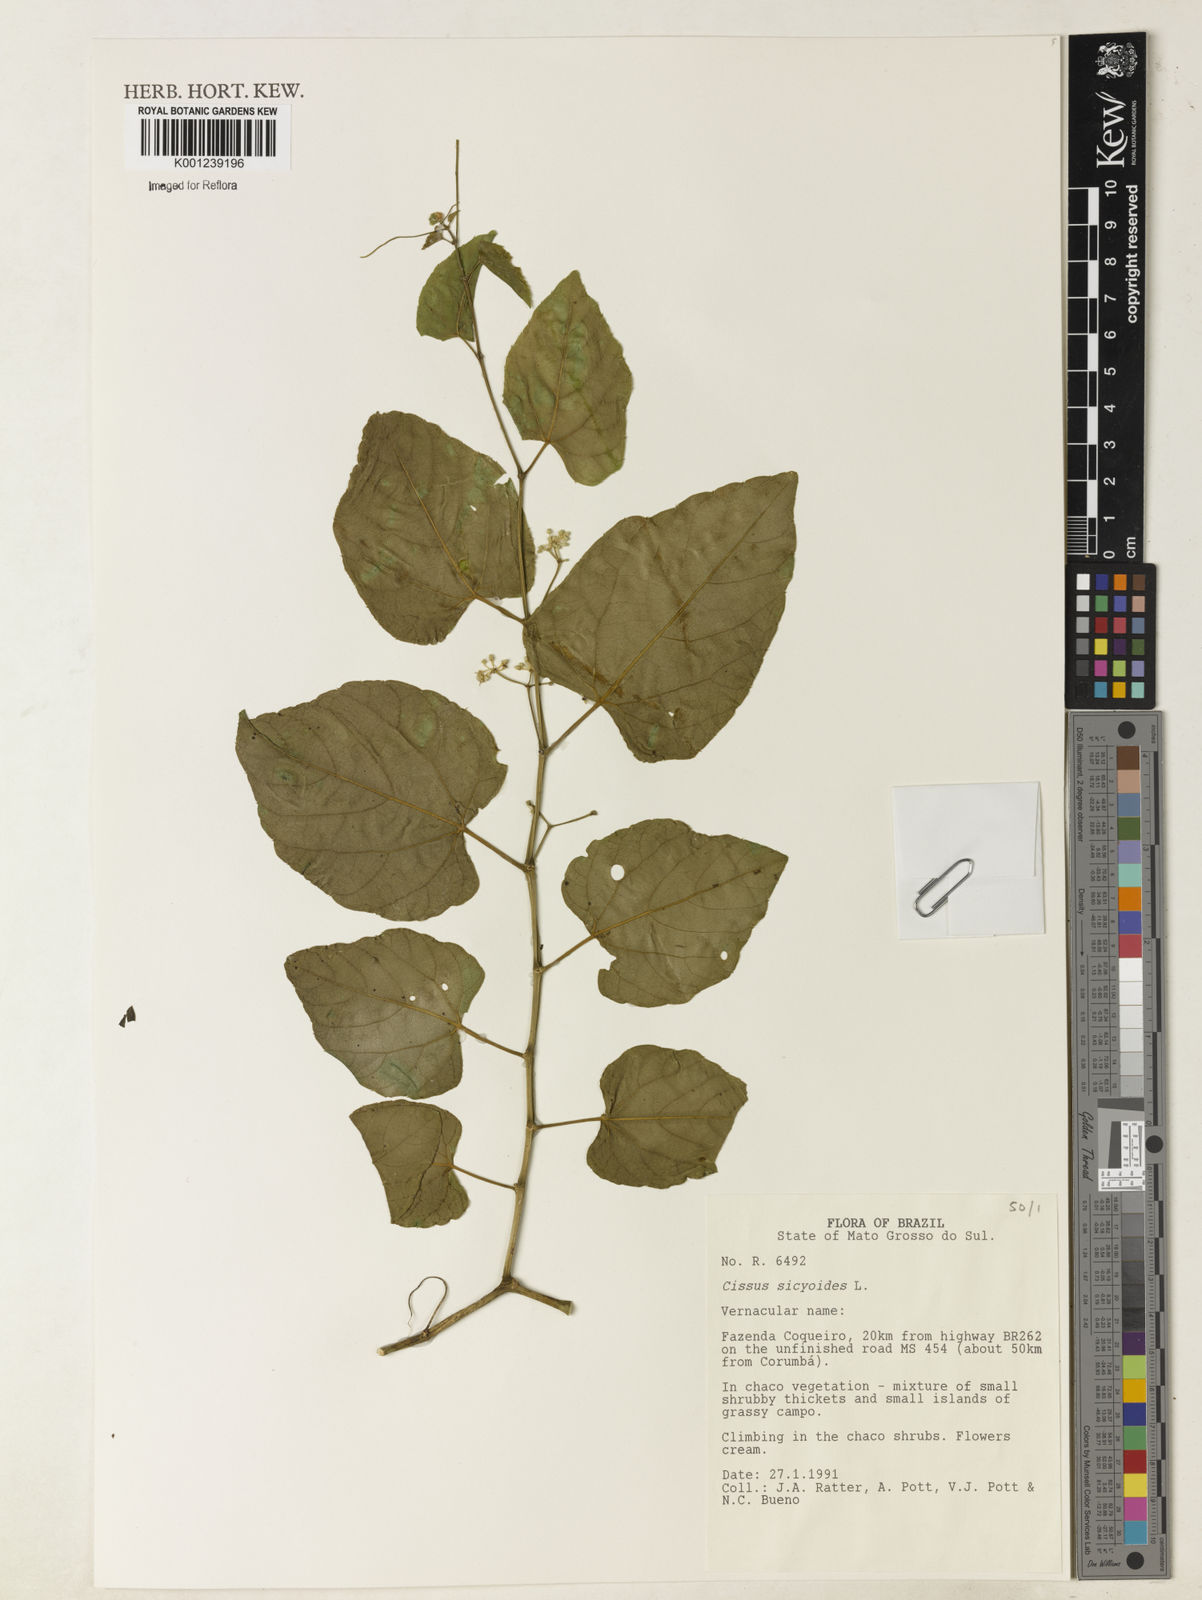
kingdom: Plantae
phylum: Tracheophyta
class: Magnoliopsida
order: Vitales
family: Vitaceae
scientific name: Vitaceae
